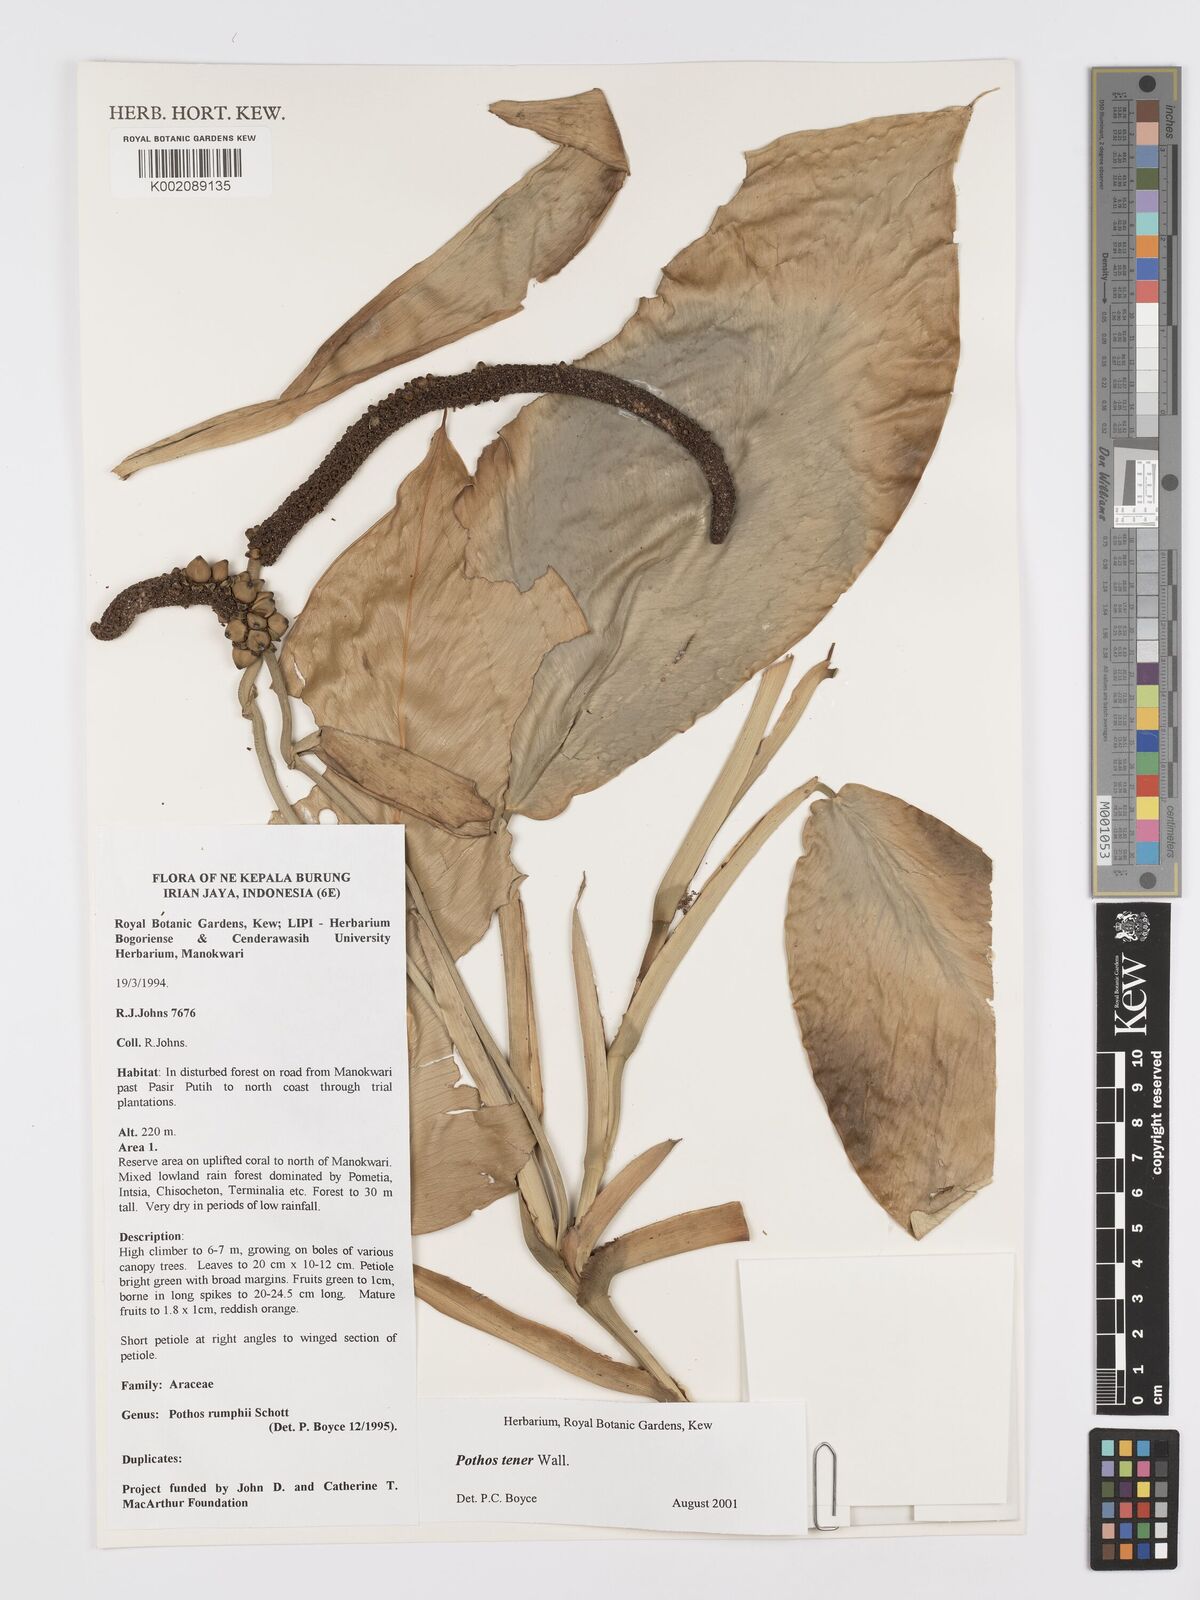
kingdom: Plantae
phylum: Tracheophyta
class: Liliopsida
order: Alismatales
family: Araceae
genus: Pothos
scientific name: Pothos tener
